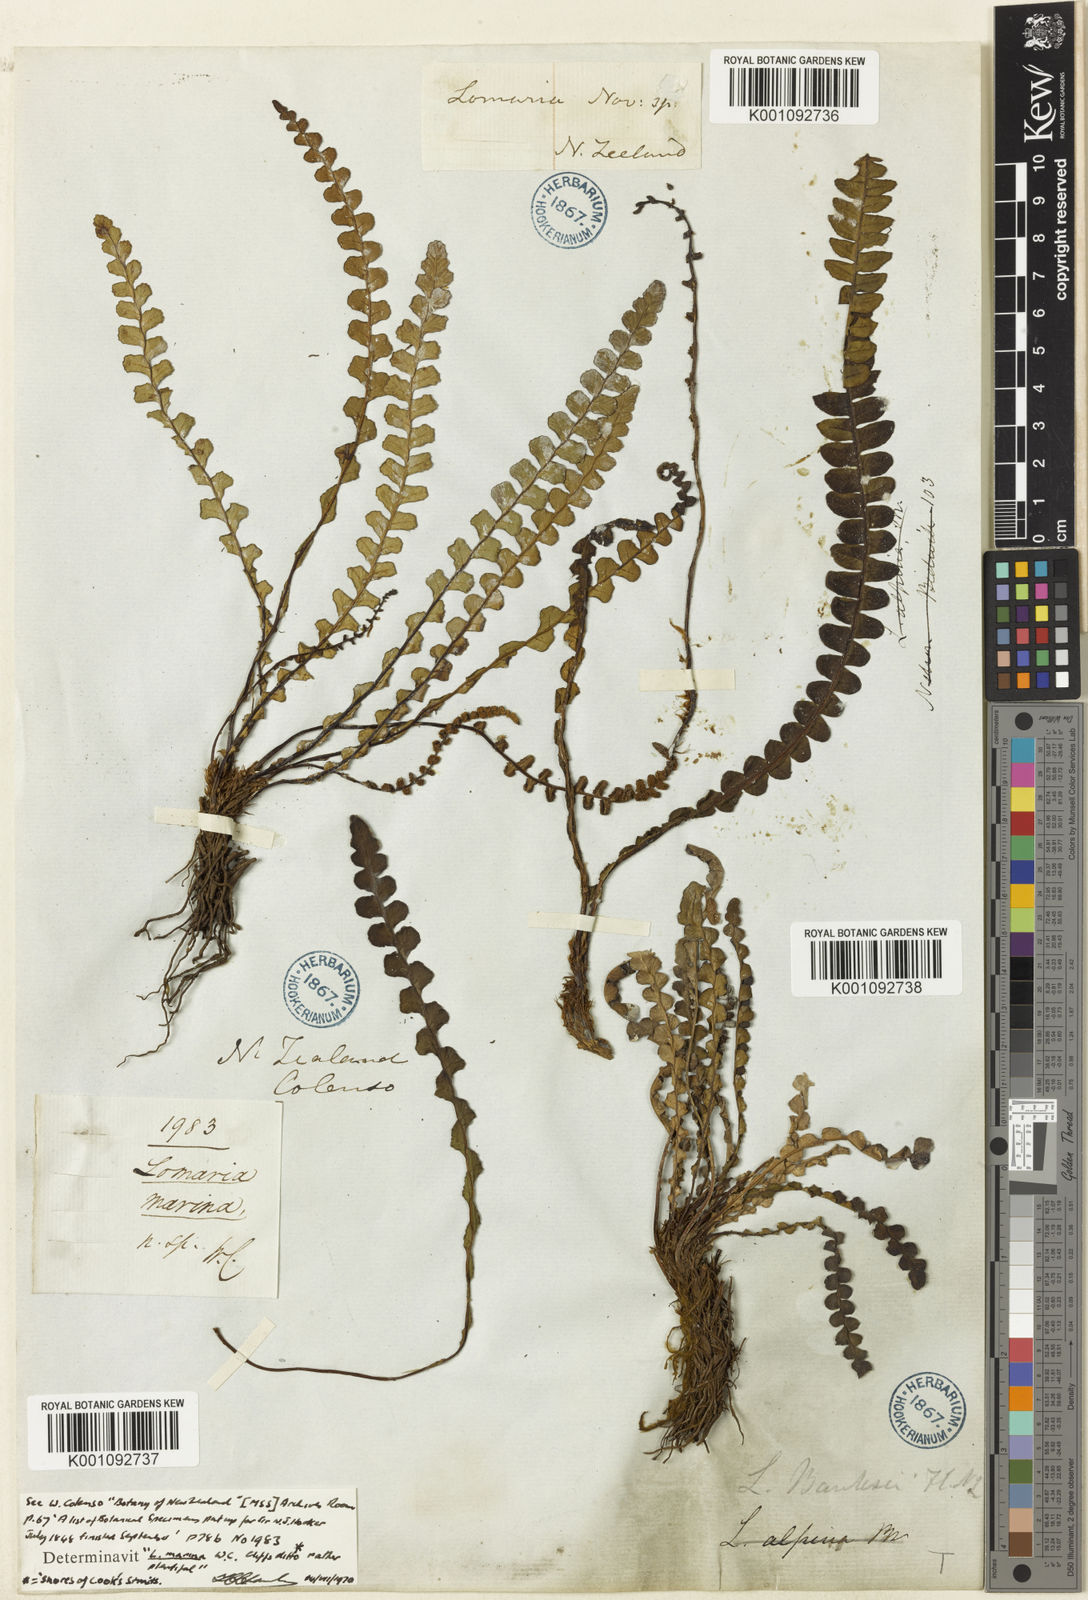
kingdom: Plantae
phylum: Tracheophyta
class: Polypodiopsida
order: Polypodiales
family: Blechnaceae
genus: Austroblechnum
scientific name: Austroblechnum leyboldtianum
